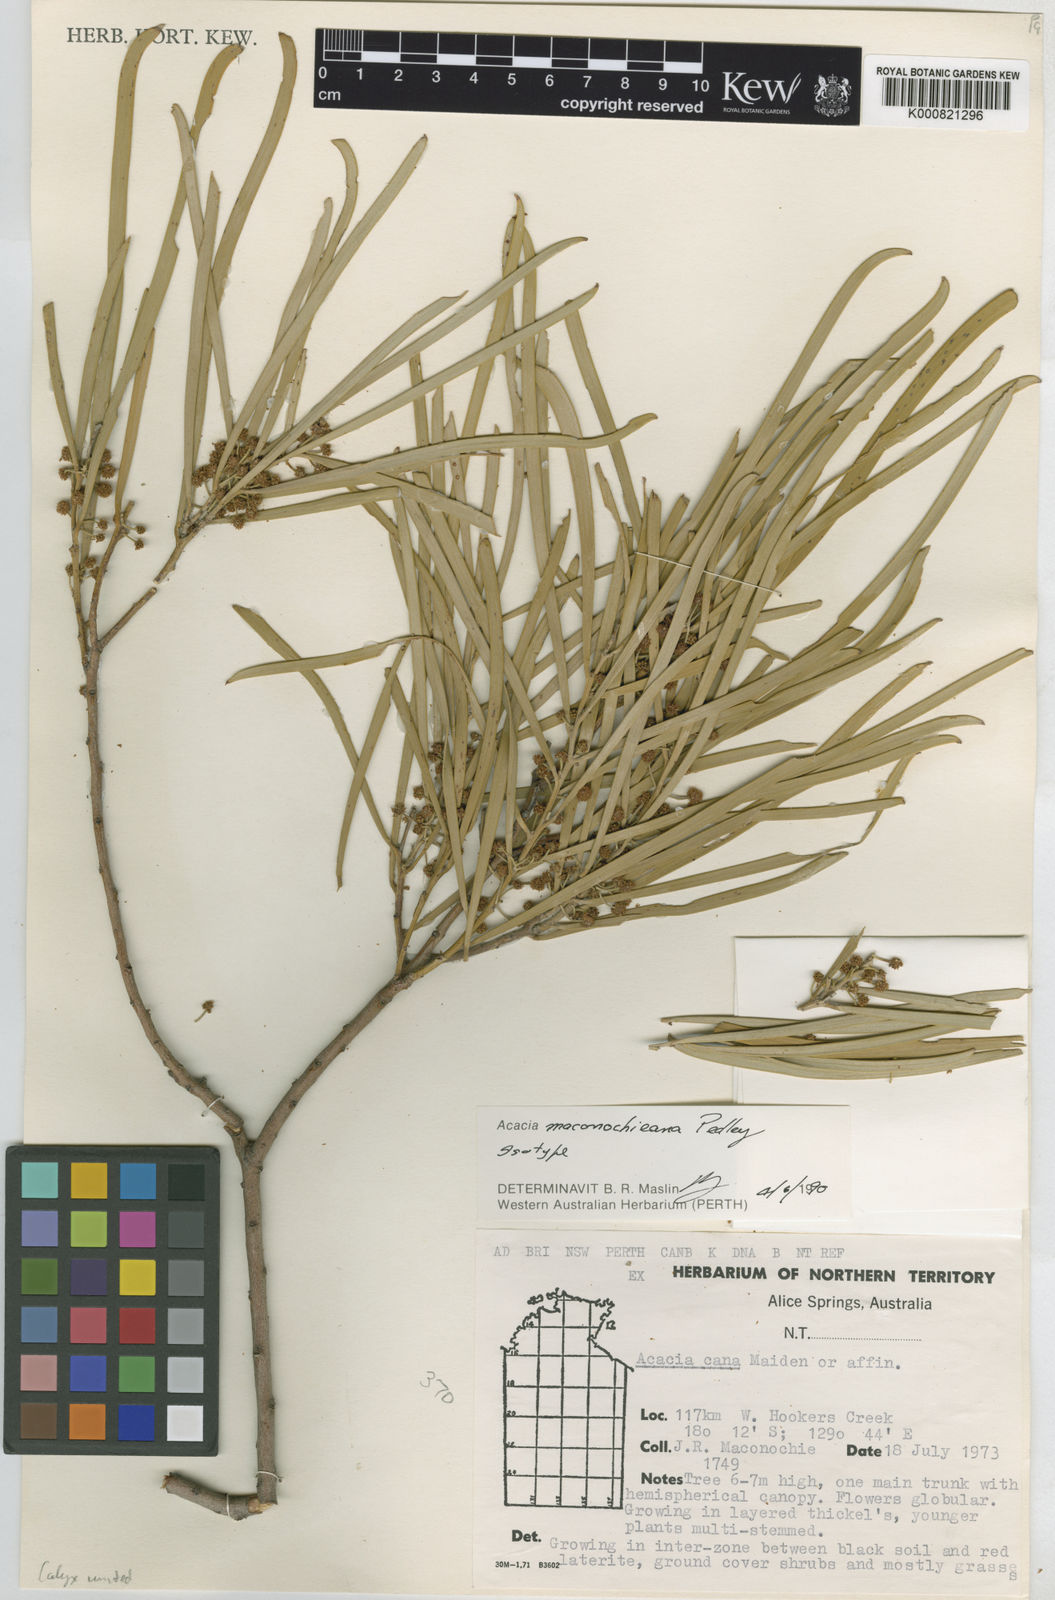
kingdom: Plantae
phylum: Tracheophyta
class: Magnoliopsida
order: Fabales
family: Fabaceae
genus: Acacia
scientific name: Acacia maconochieana
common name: Salt wattle
